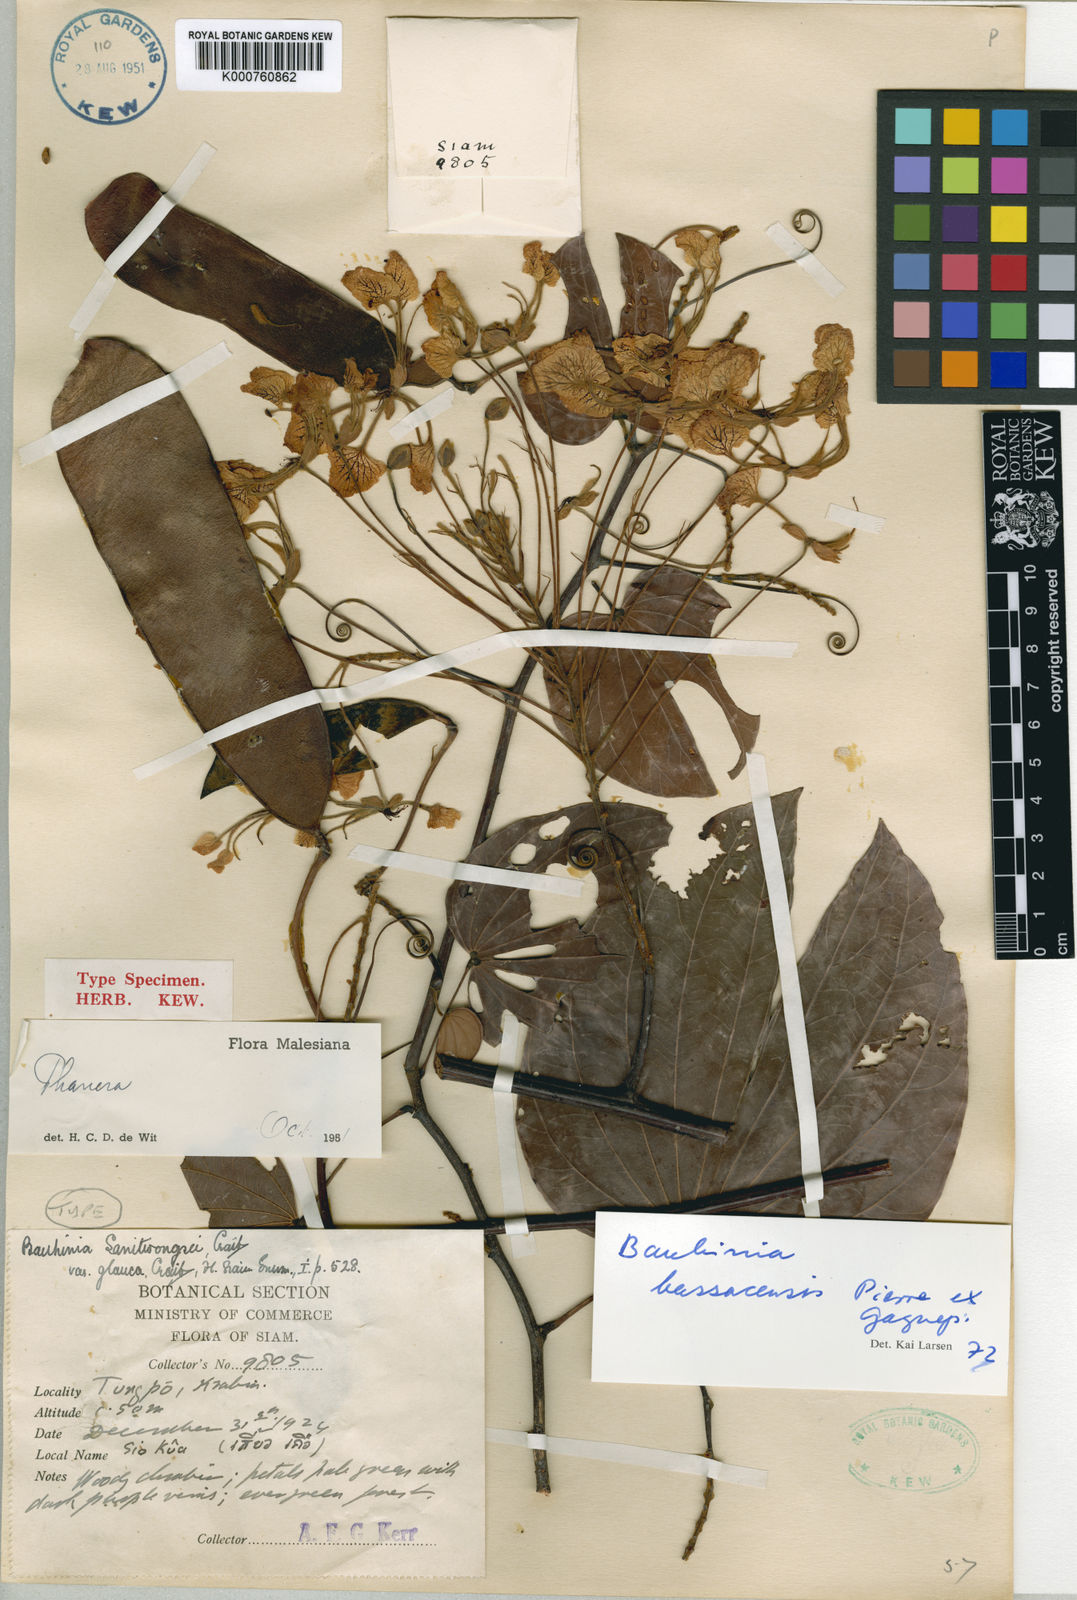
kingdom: Plantae
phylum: Tracheophyta
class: Magnoliopsida
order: Fabales
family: Fabaceae
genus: Phanera
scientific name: Phanera bassacensis
